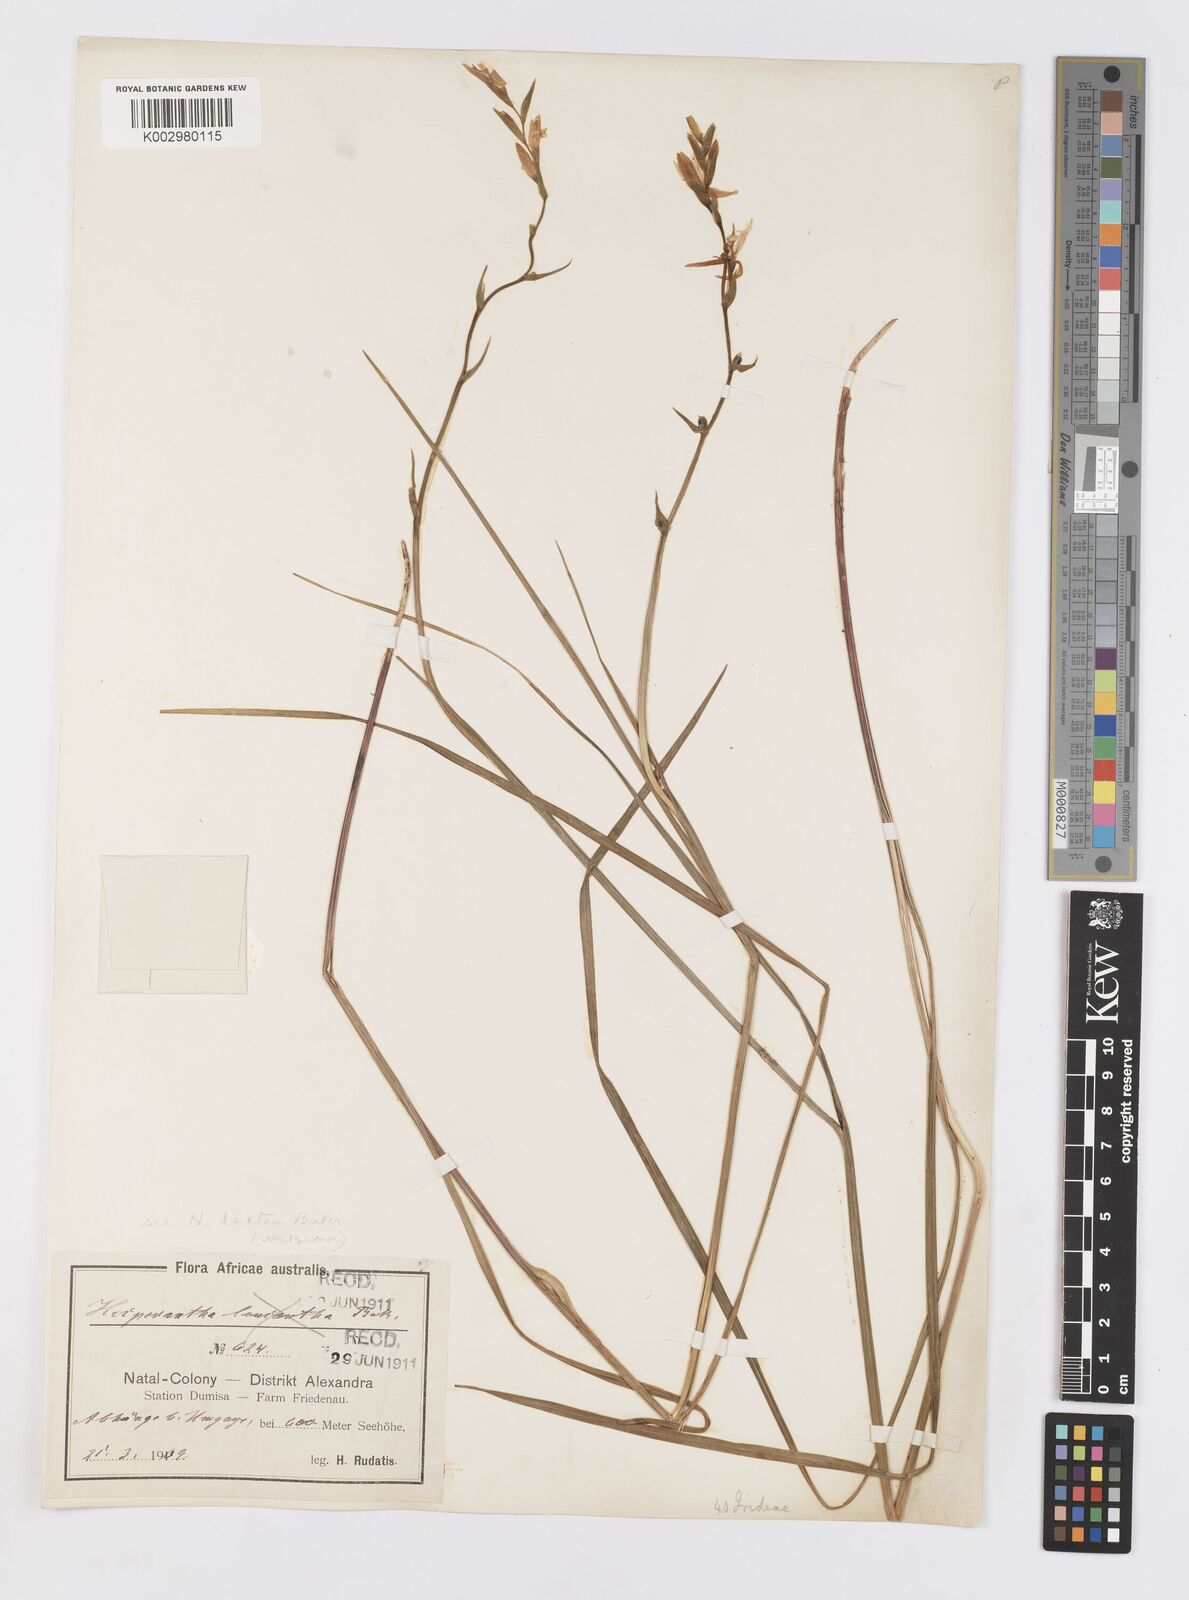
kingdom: Plantae
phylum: Tracheophyta
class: Liliopsida
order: Asparagales
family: Iridaceae
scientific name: Iridaceae
